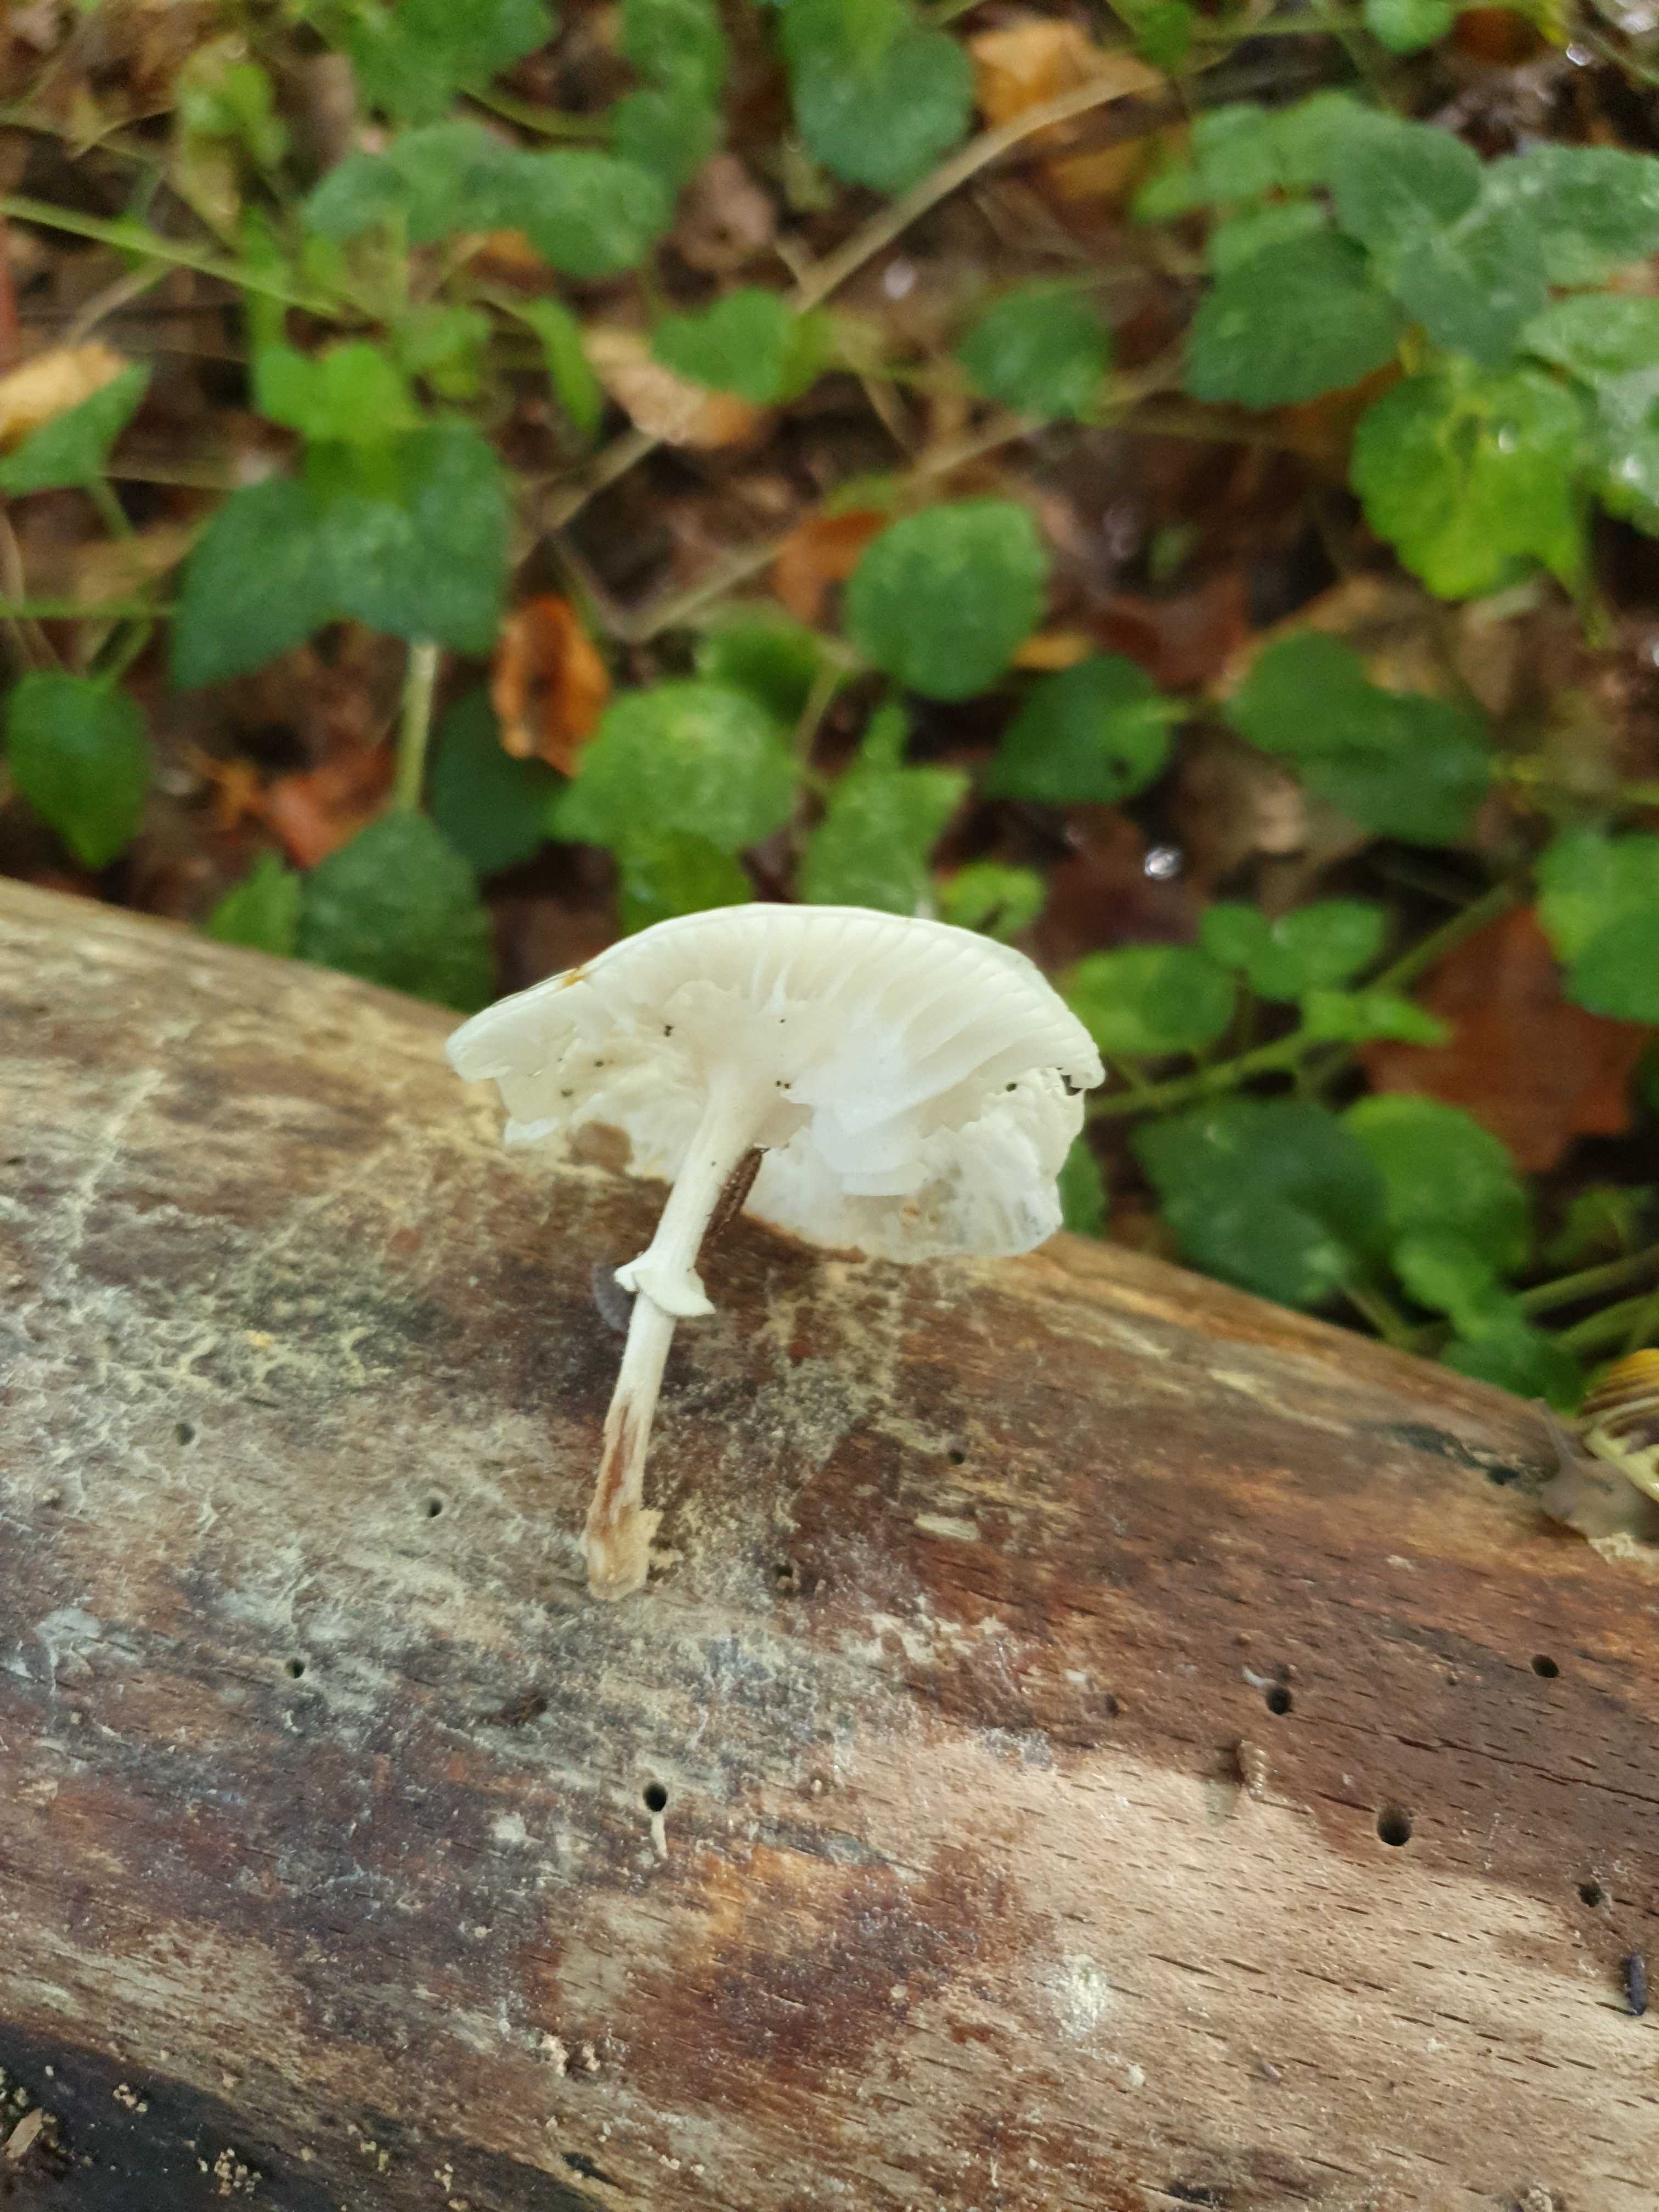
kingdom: Fungi
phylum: Basidiomycota
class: Agaricomycetes
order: Agaricales
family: Physalacriaceae
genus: Mucidula
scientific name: Mucidula mucida
